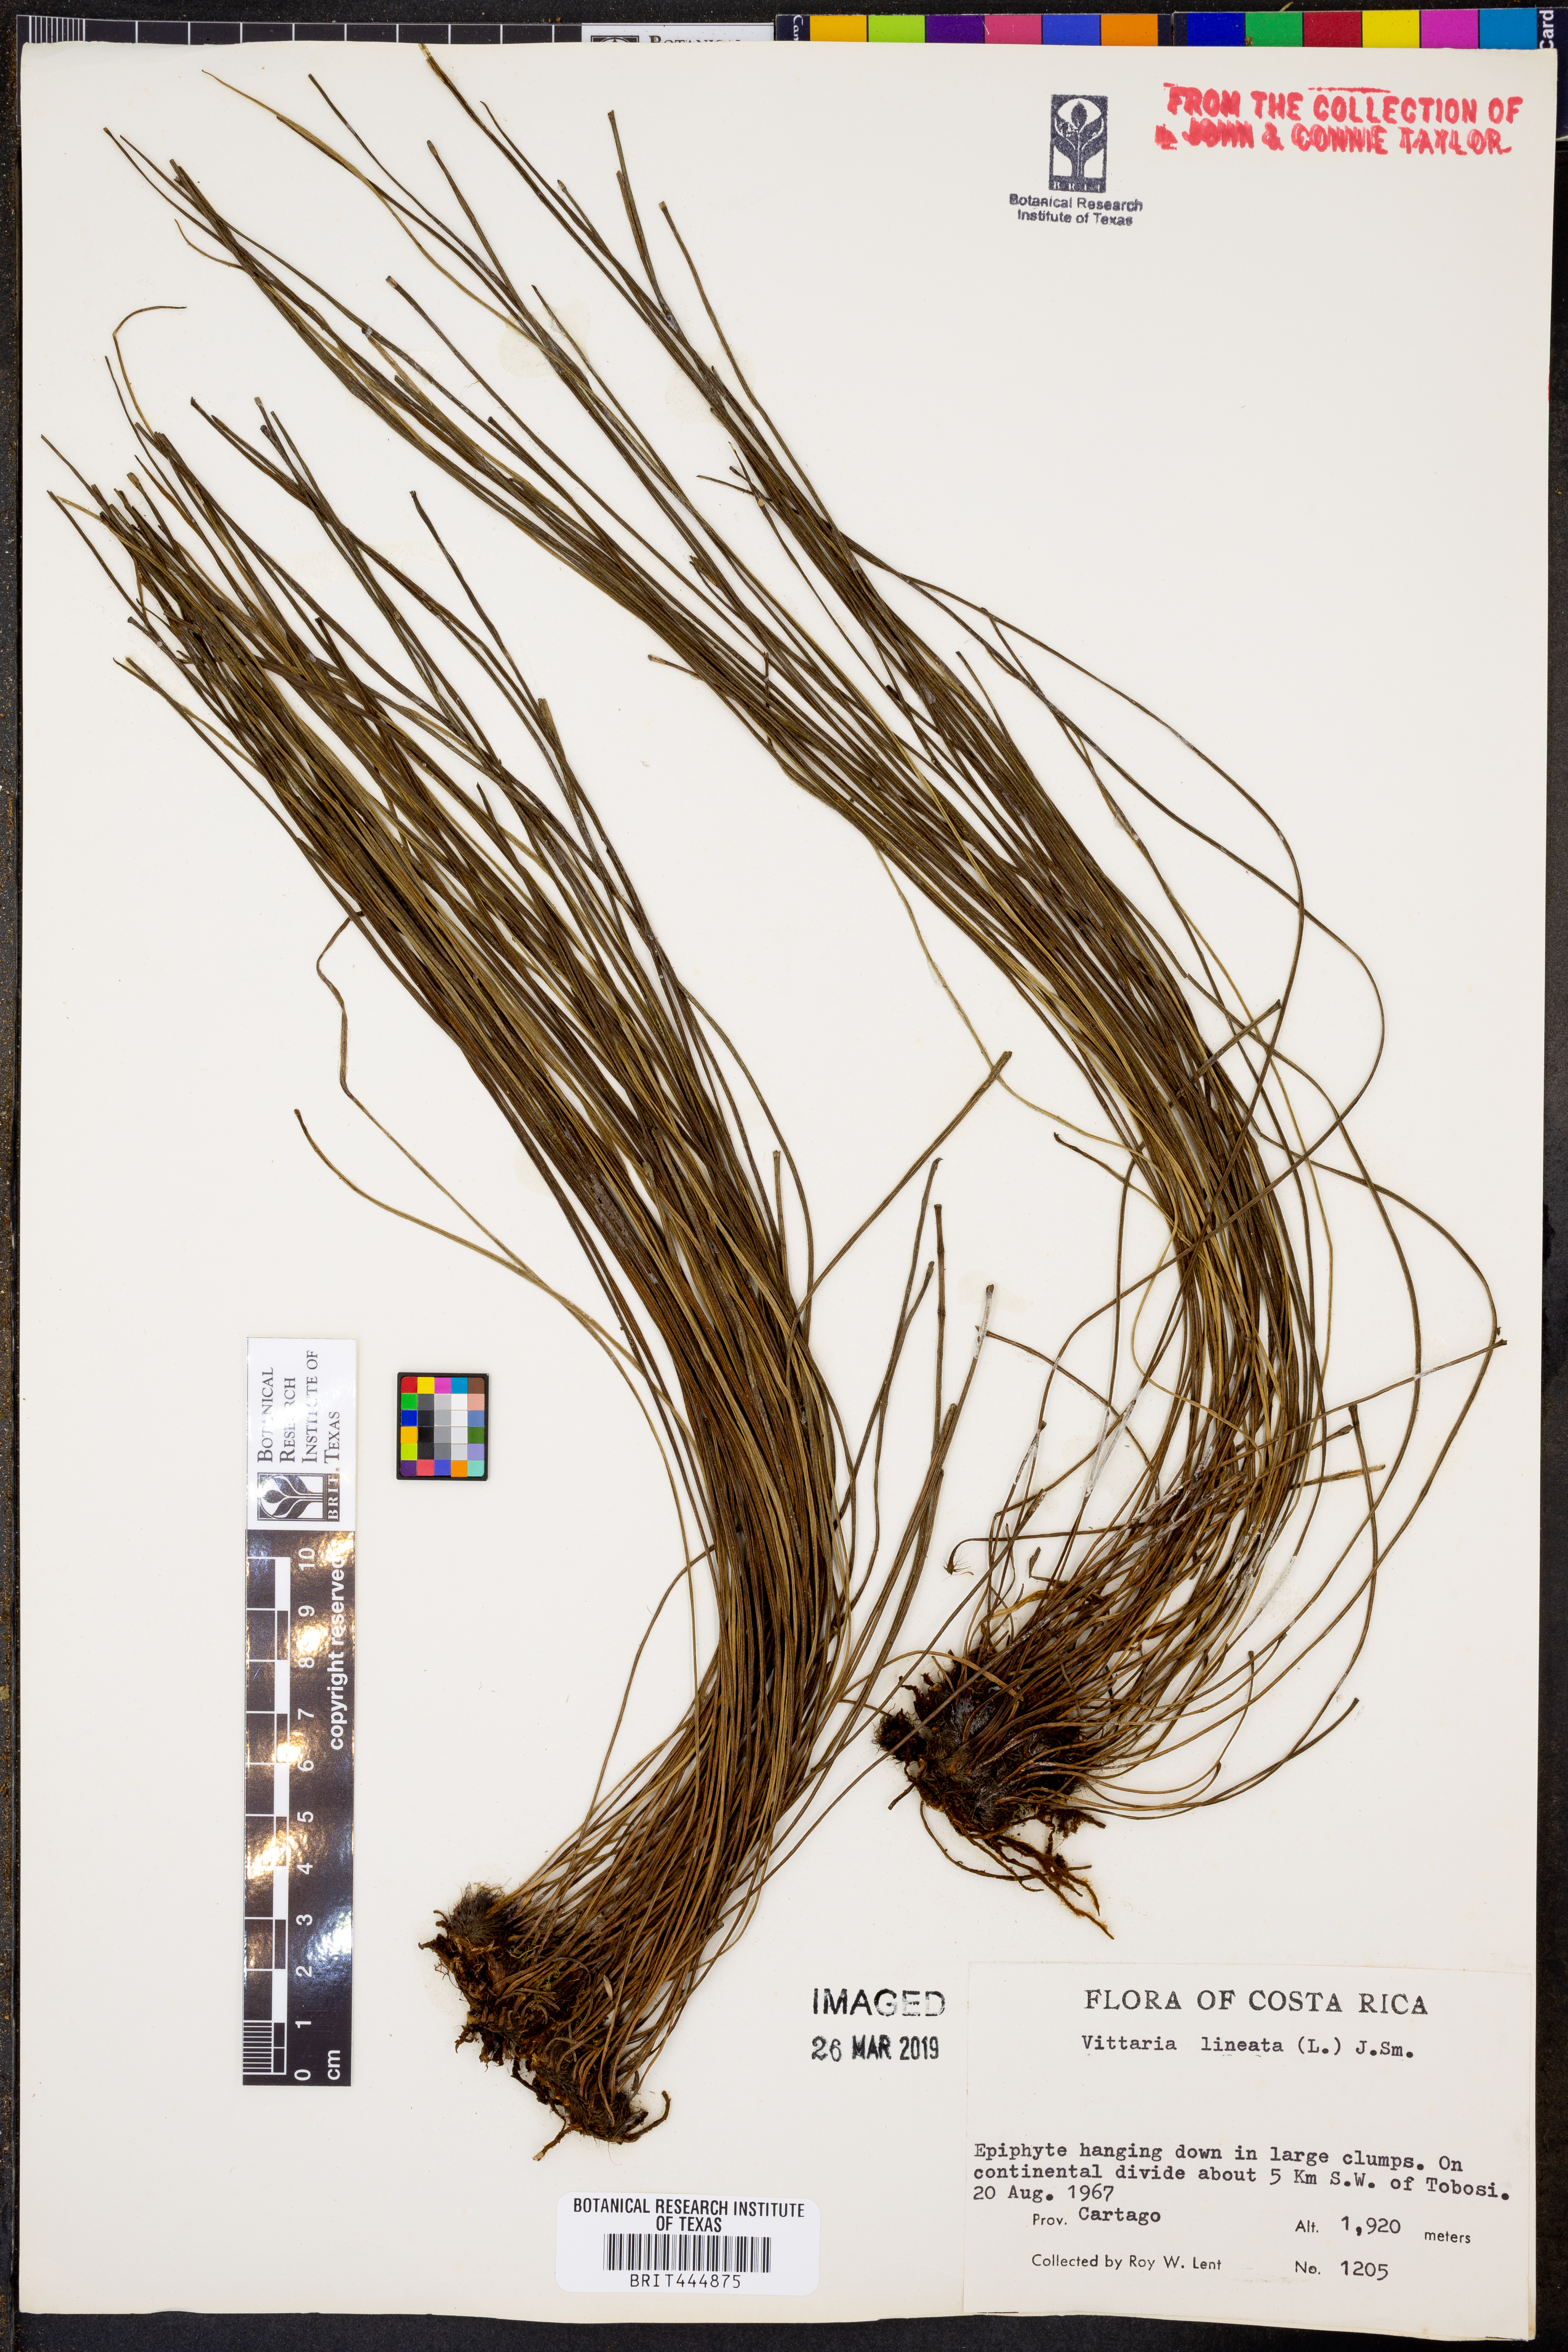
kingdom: Plantae
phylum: Tracheophyta
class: Polypodiopsida
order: Polypodiales
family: Pteridaceae
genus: Vittaria
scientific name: Vittaria lineata
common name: Shoestring fern
